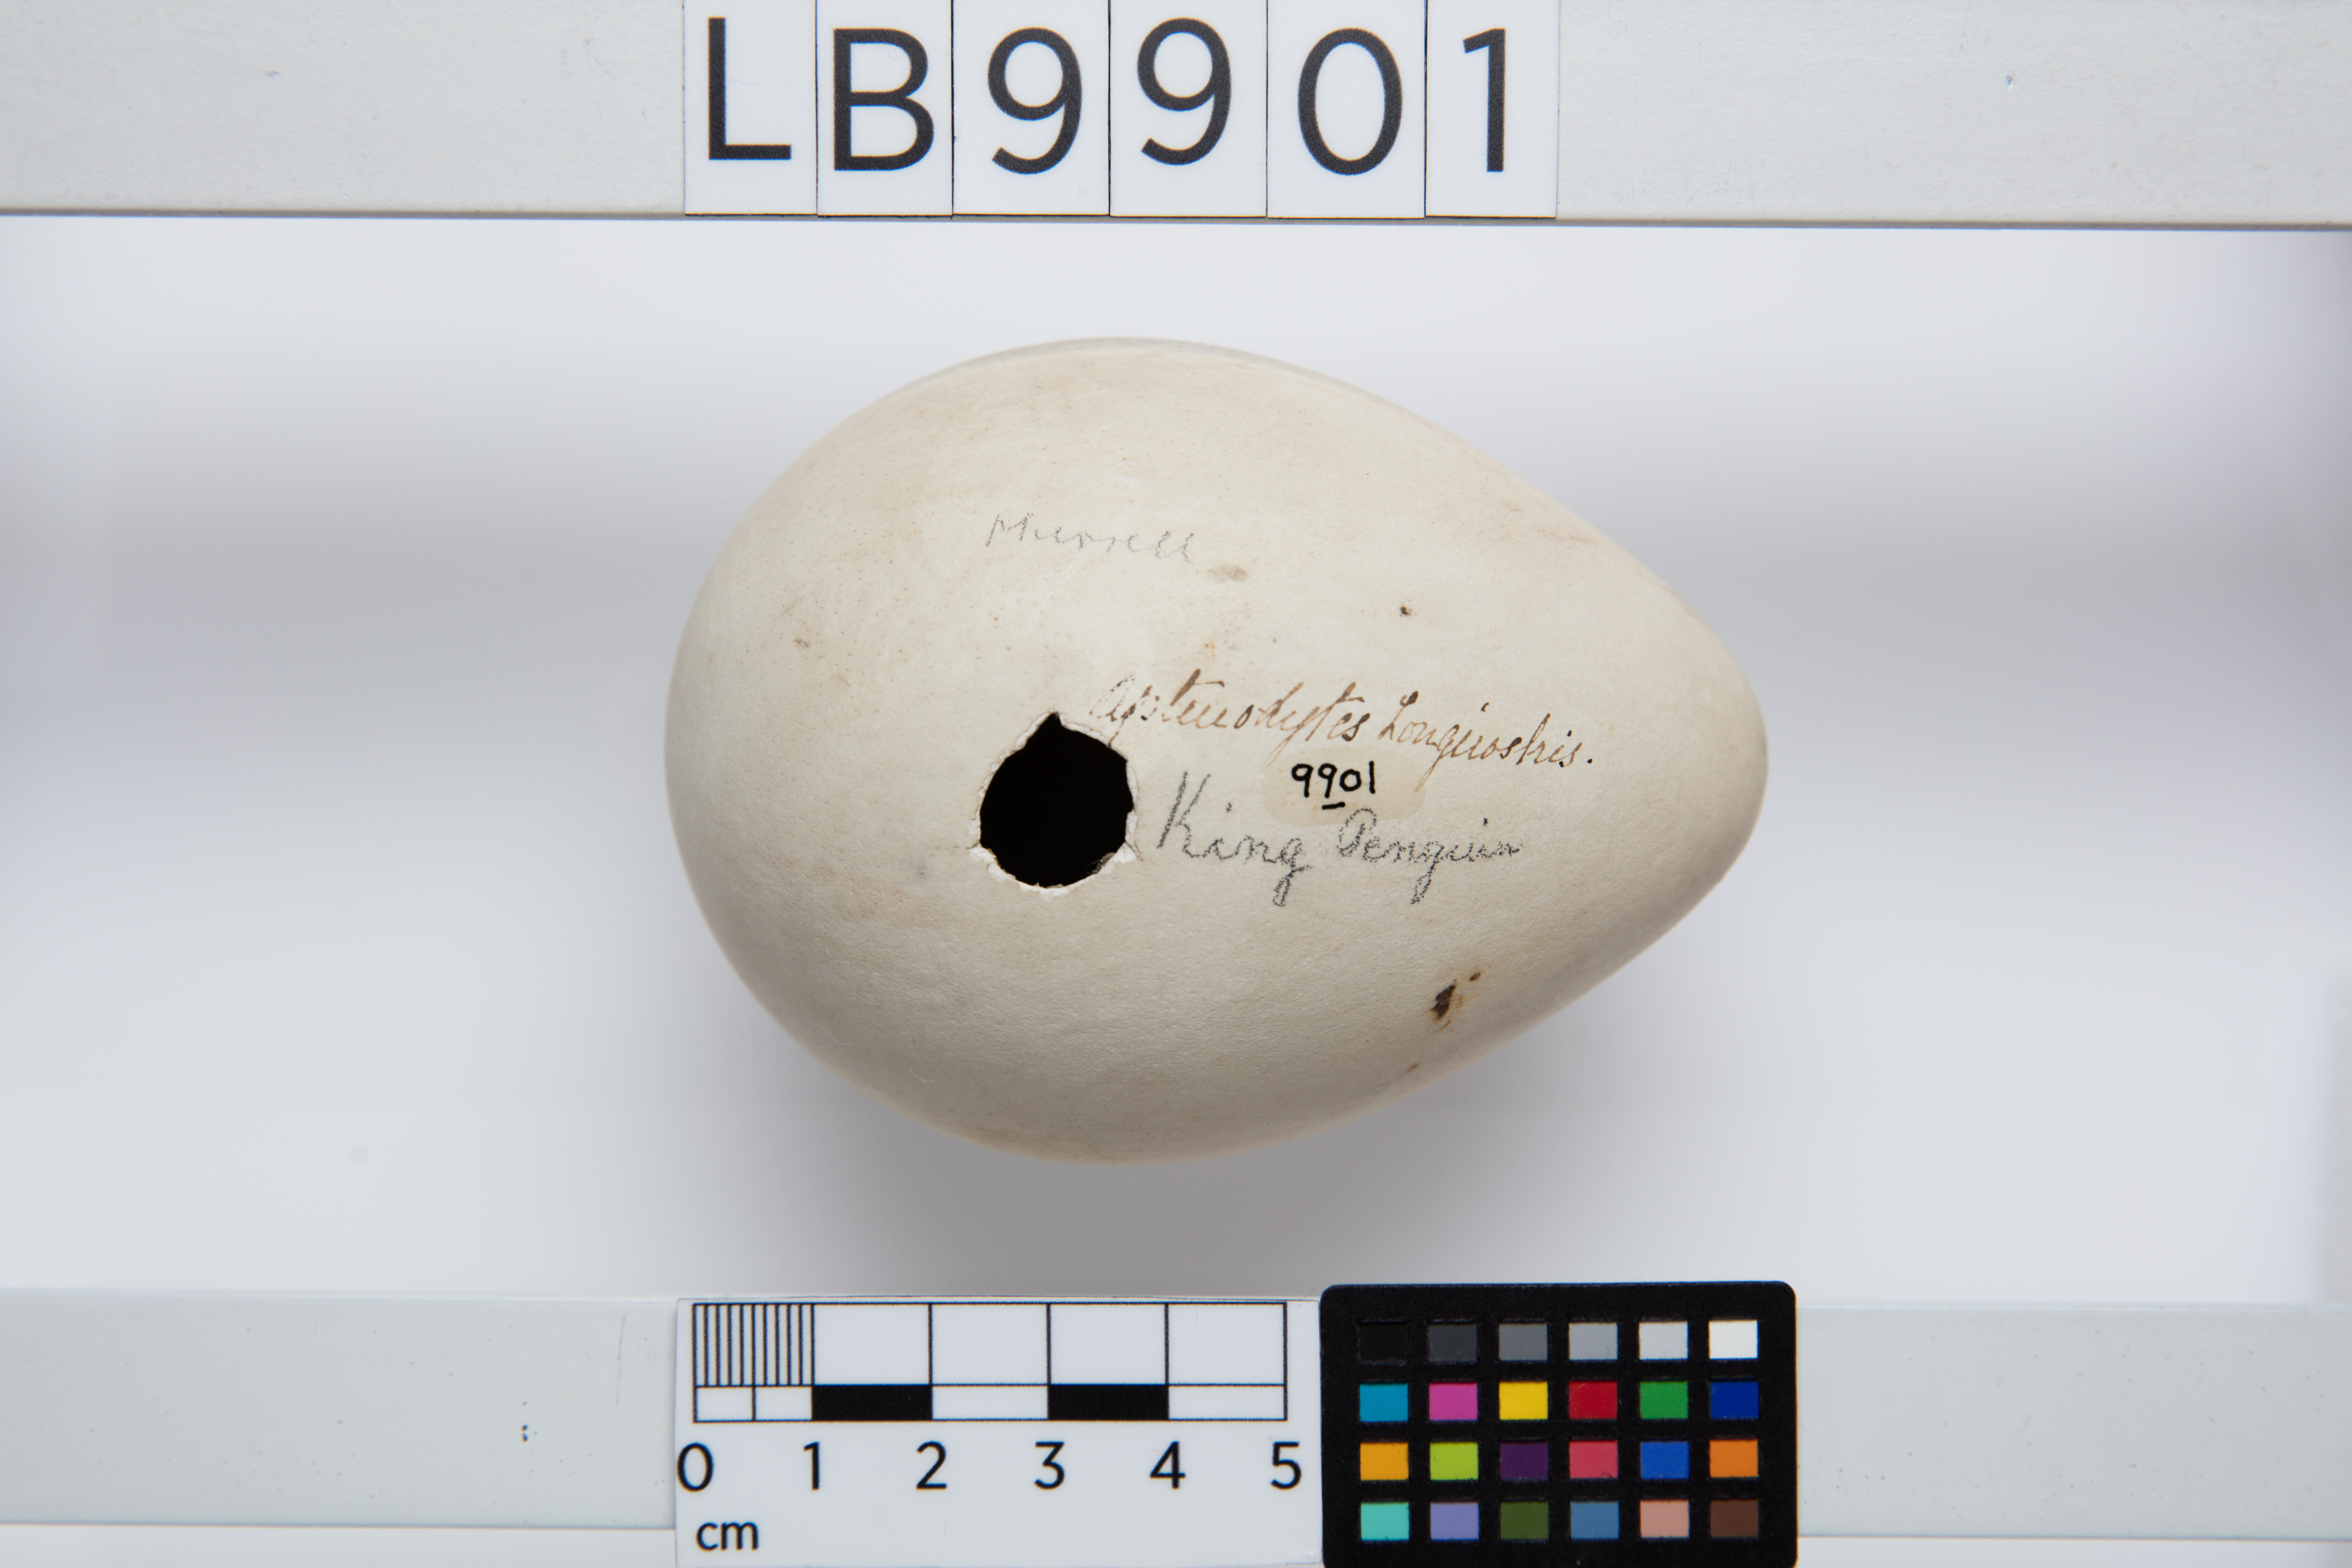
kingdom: Animalia
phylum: Chordata
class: Aves
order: Sphenisciformes
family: Spheniscidae
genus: Aptenodytes
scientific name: Aptenodytes patagonicus
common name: King penguin
